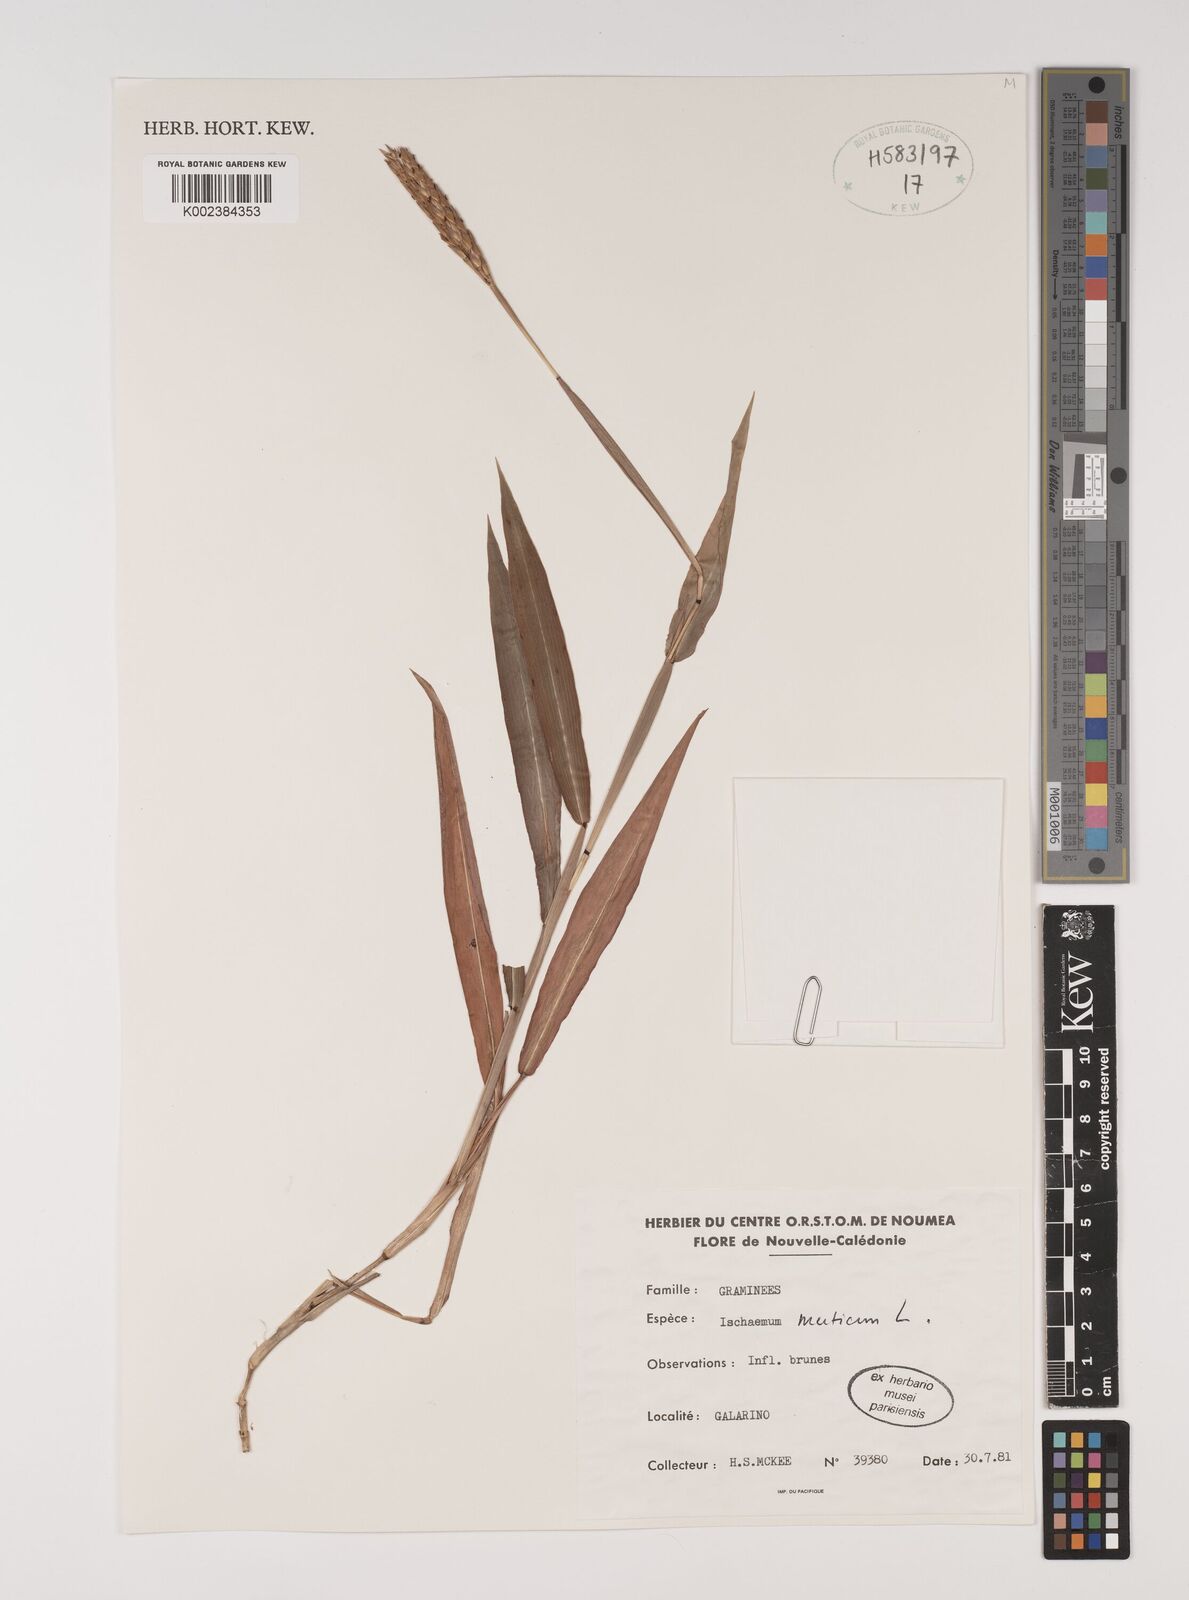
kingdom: Plantae
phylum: Tracheophyta
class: Liliopsida
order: Poales
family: Poaceae
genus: Ischaemum
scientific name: Ischaemum muticum
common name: Drought grass
